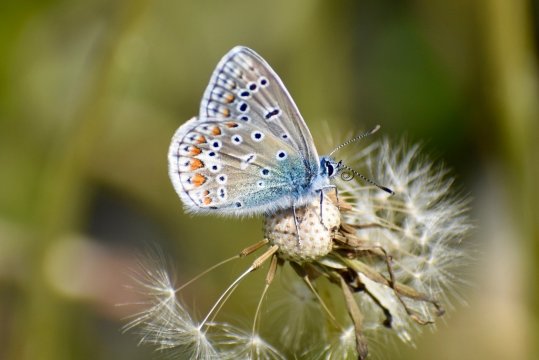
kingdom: Animalia
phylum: Arthropoda
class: Insecta
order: Lepidoptera
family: Lycaenidae
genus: Polyommatus
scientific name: Polyommatus icarus
